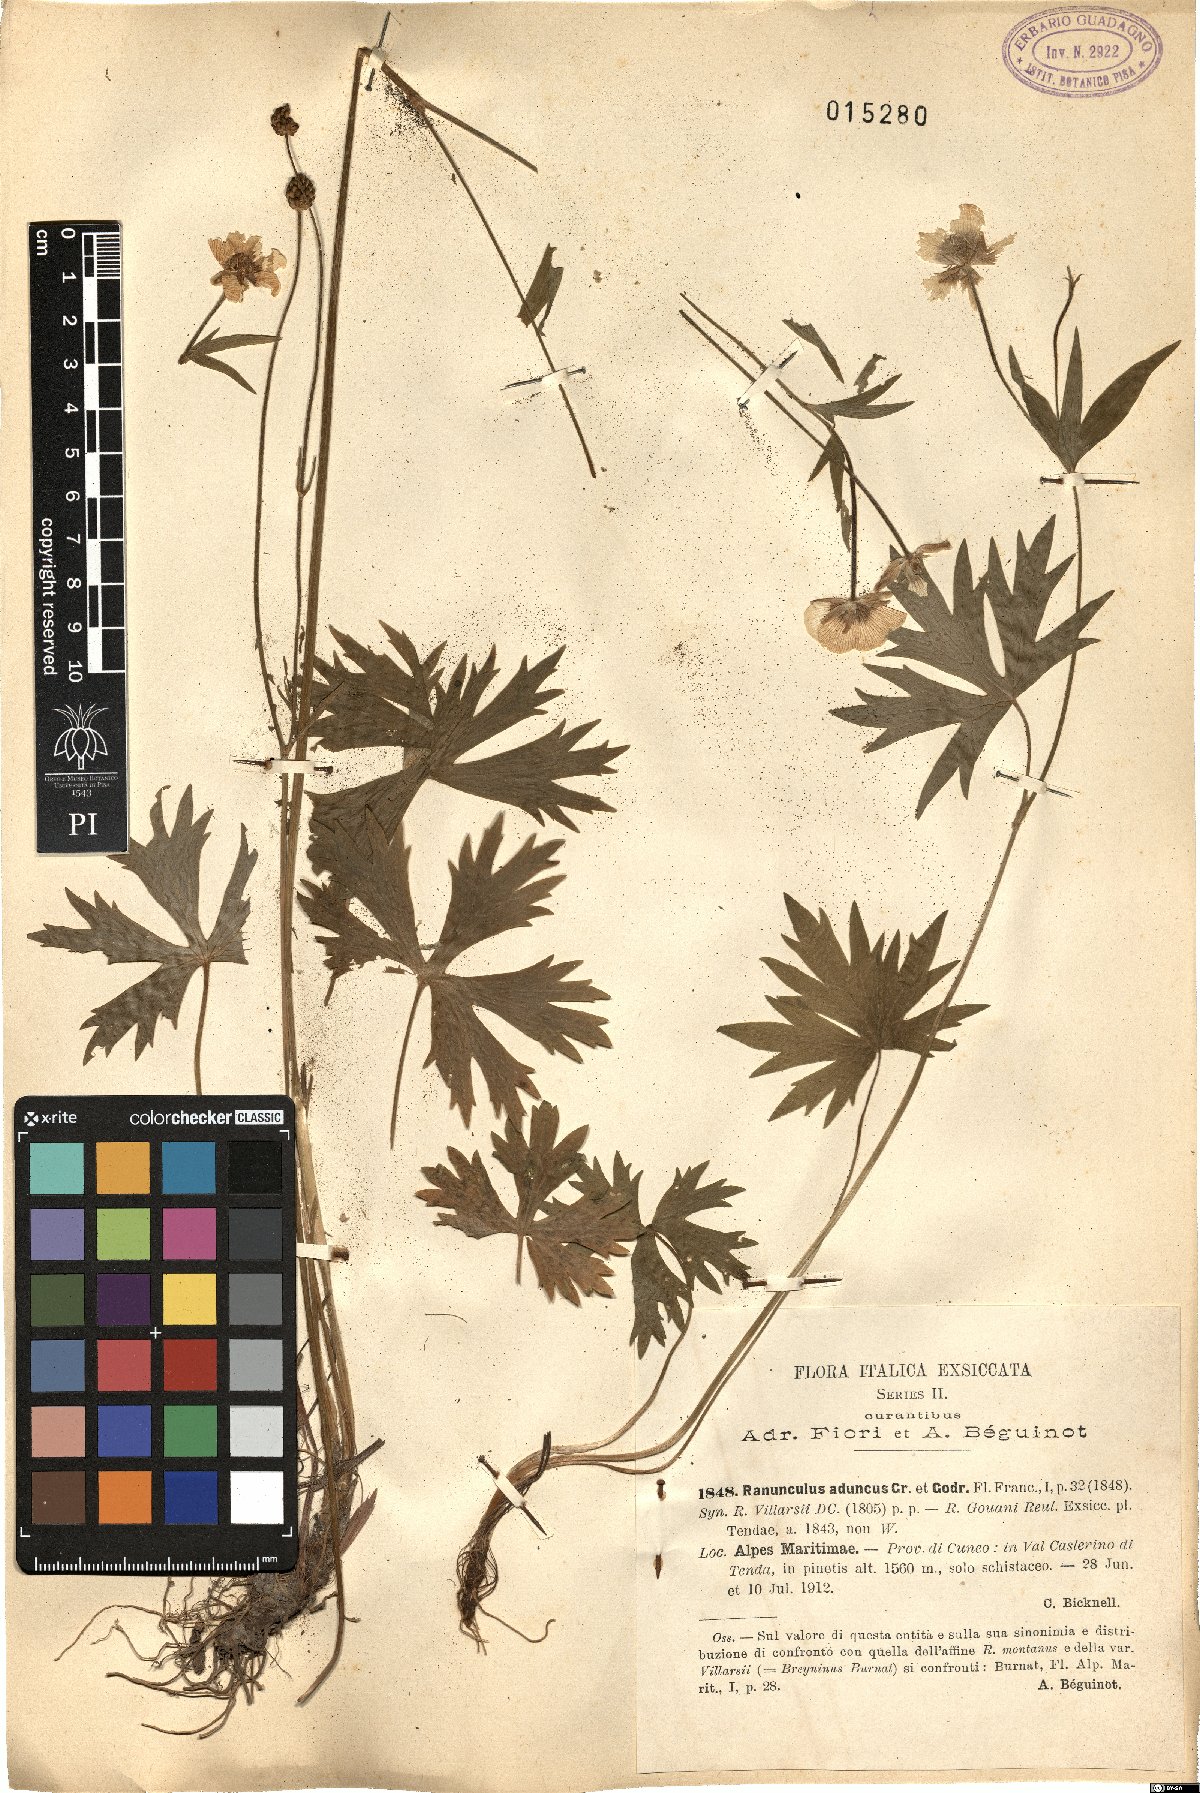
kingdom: Plantae
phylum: Tracheophyta
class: Magnoliopsida
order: Ranunculales
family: Ranunculaceae
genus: Ranunculus
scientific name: Ranunculus aduncus
